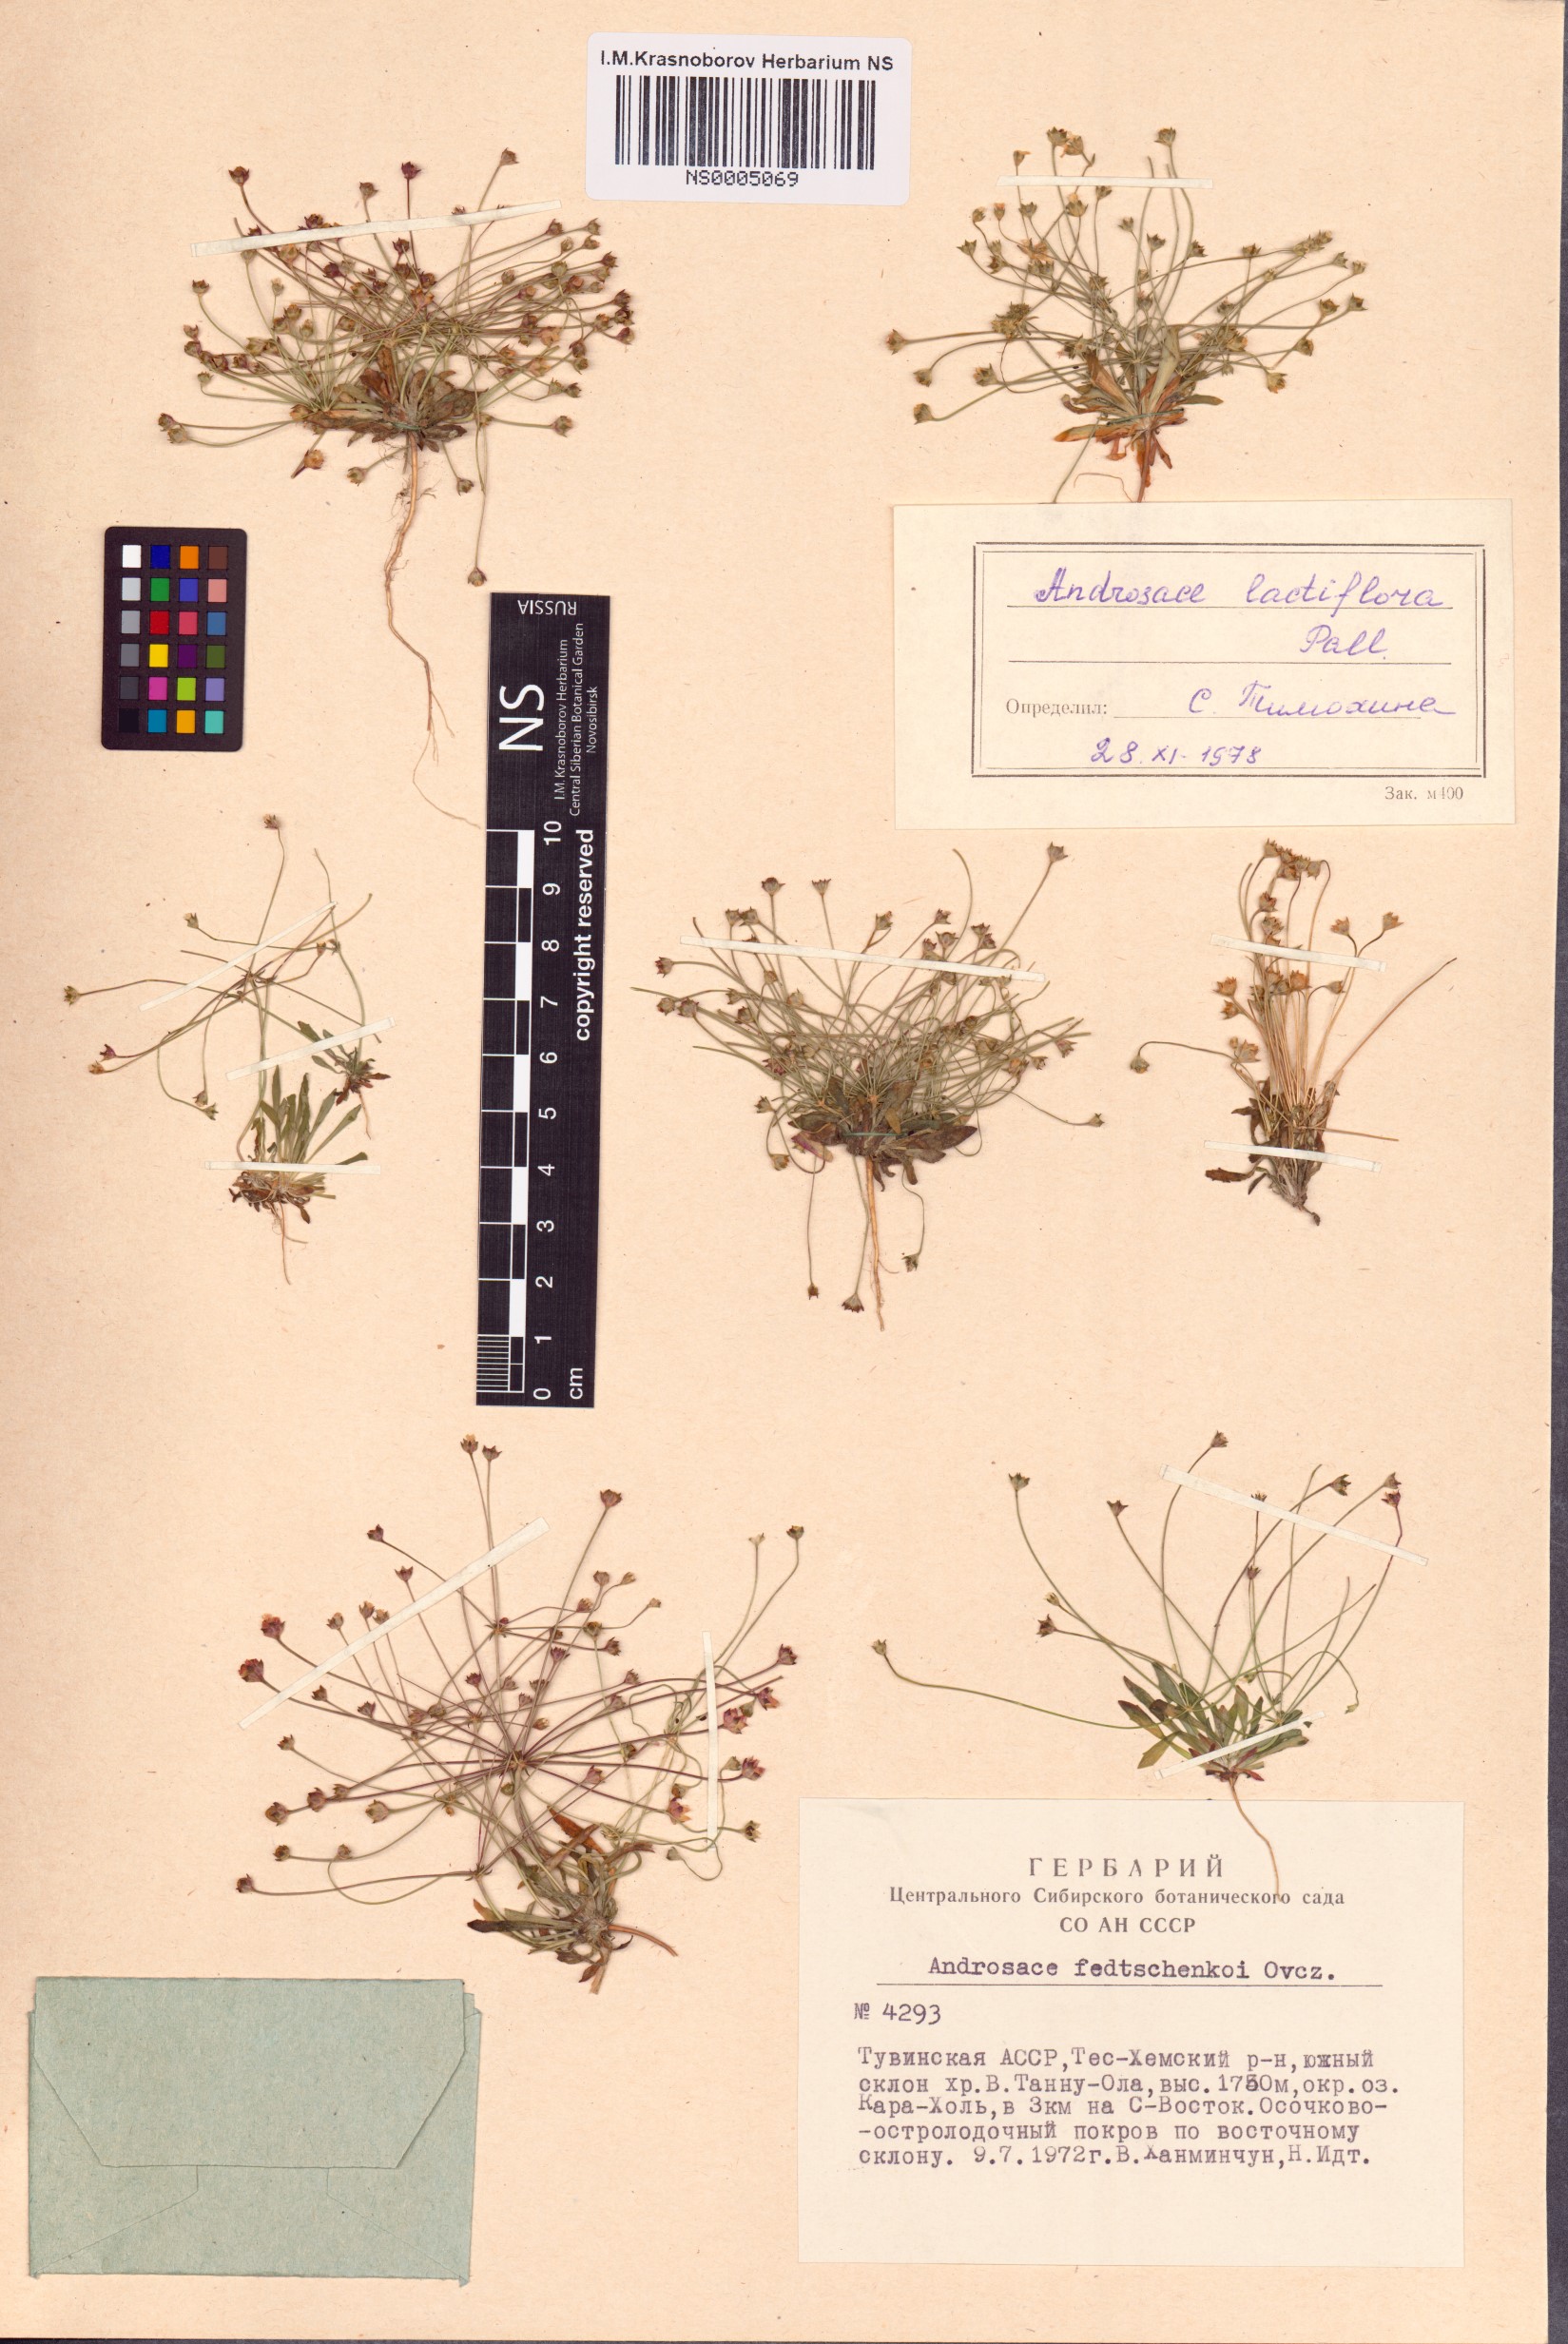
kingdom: Plantae
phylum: Tracheophyta
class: Magnoliopsida
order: Ericales
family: Primulaceae
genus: Androsace
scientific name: Androsace lactiflora
